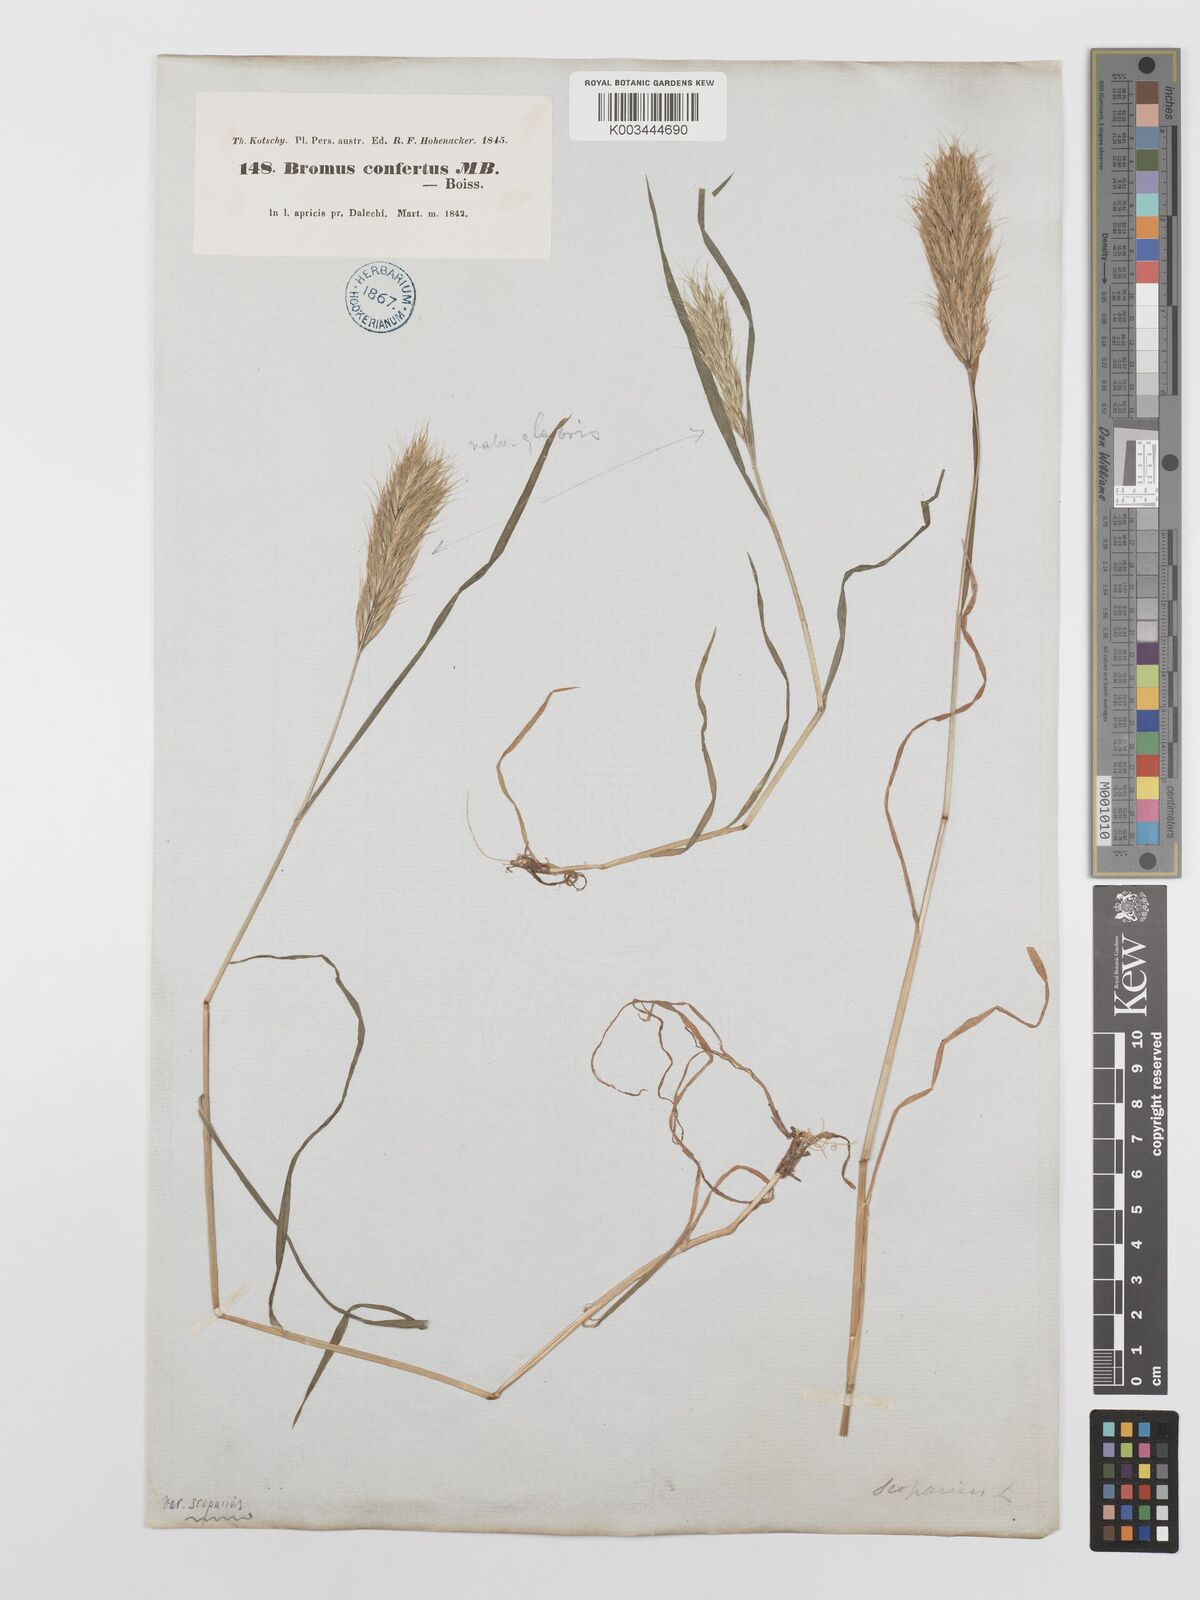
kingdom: Plantae
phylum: Tracheophyta
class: Liliopsida
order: Poales
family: Poaceae
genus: Bromus
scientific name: Bromus scoparius
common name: Broom brome
